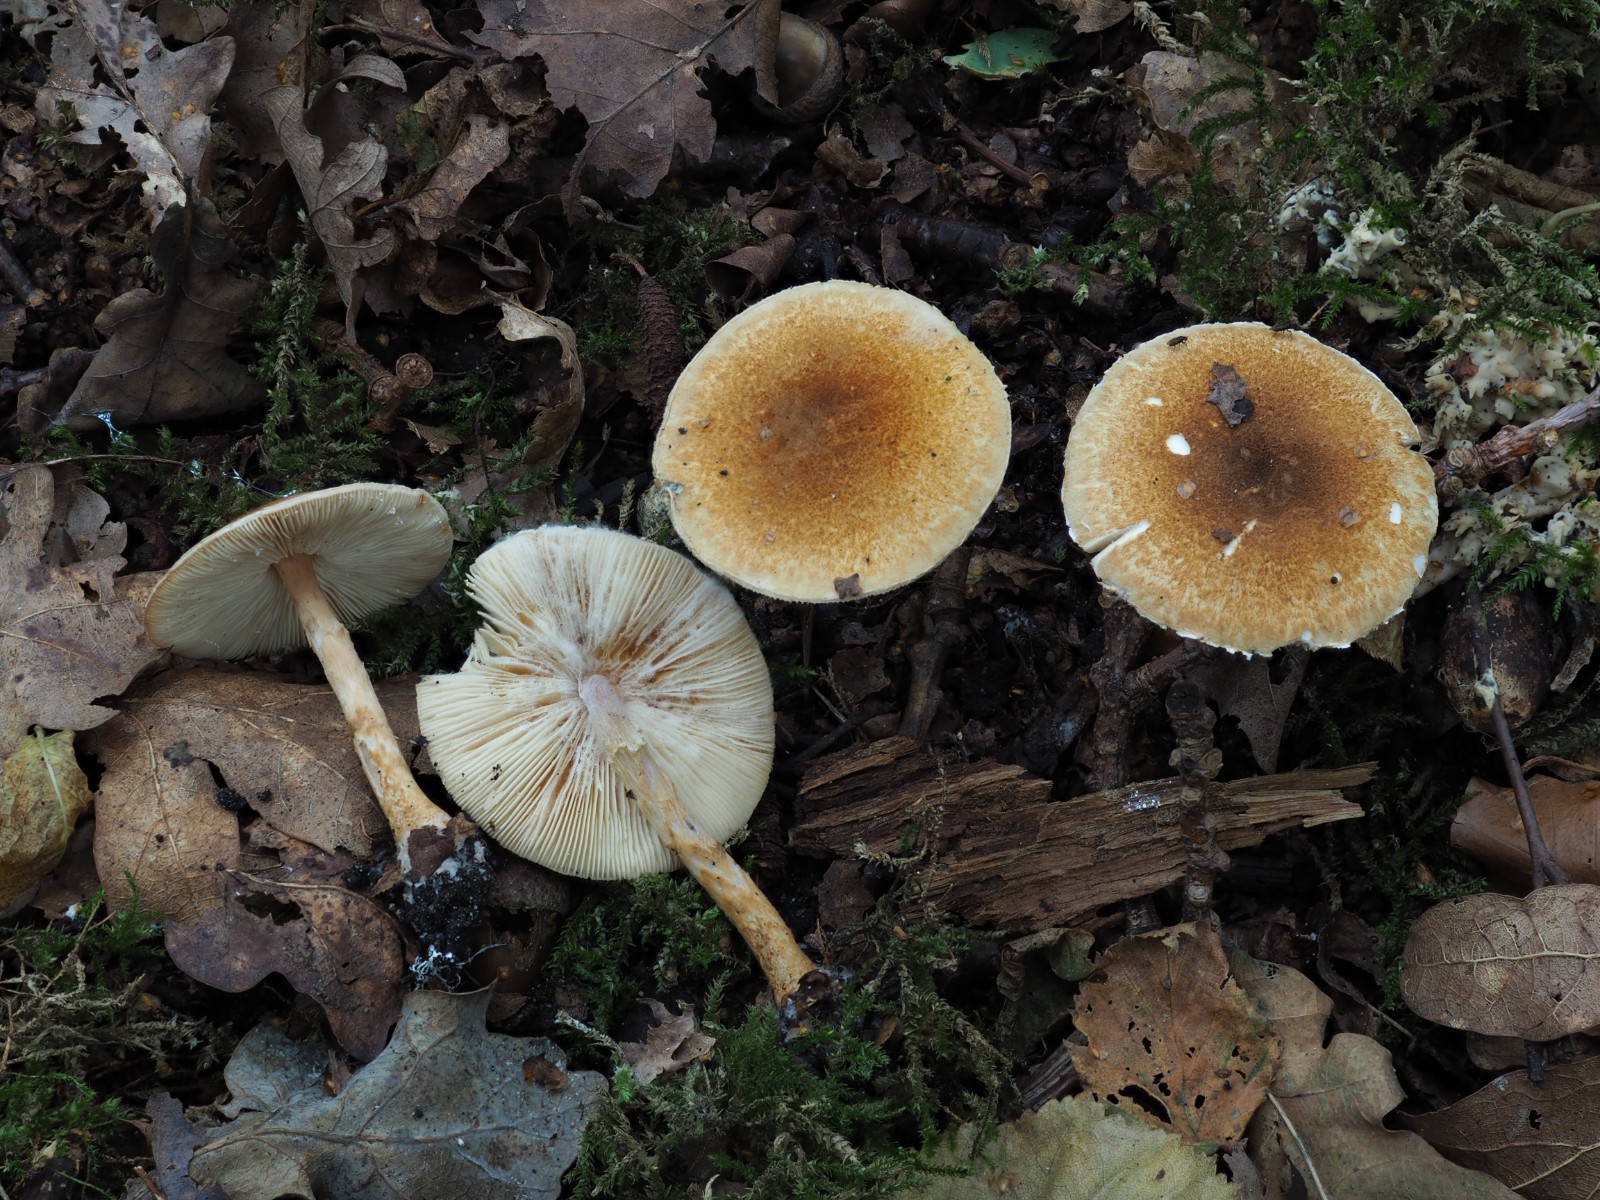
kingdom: Fungi
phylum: Basidiomycota
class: Agaricomycetes
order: Agaricales
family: Agaricaceae
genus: Leucocoprinus
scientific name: Leucocoprinus straminellus
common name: rustbrun parasolhat
